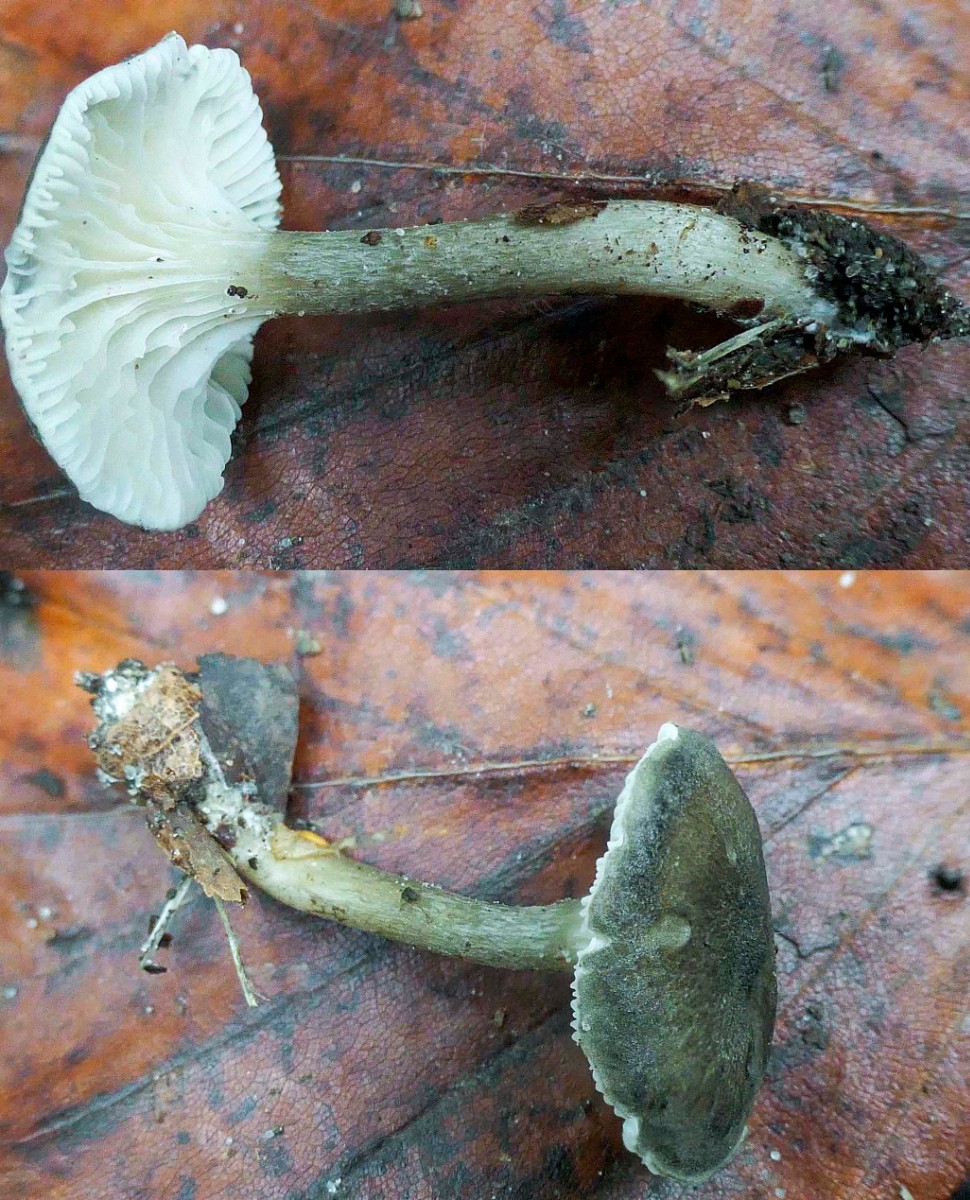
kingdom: Fungi
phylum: Basidiomycota
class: Agaricomycetes
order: Agaricales
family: Hygrophoraceae
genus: Spodocybe
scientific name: Spodocybe trulliformis
